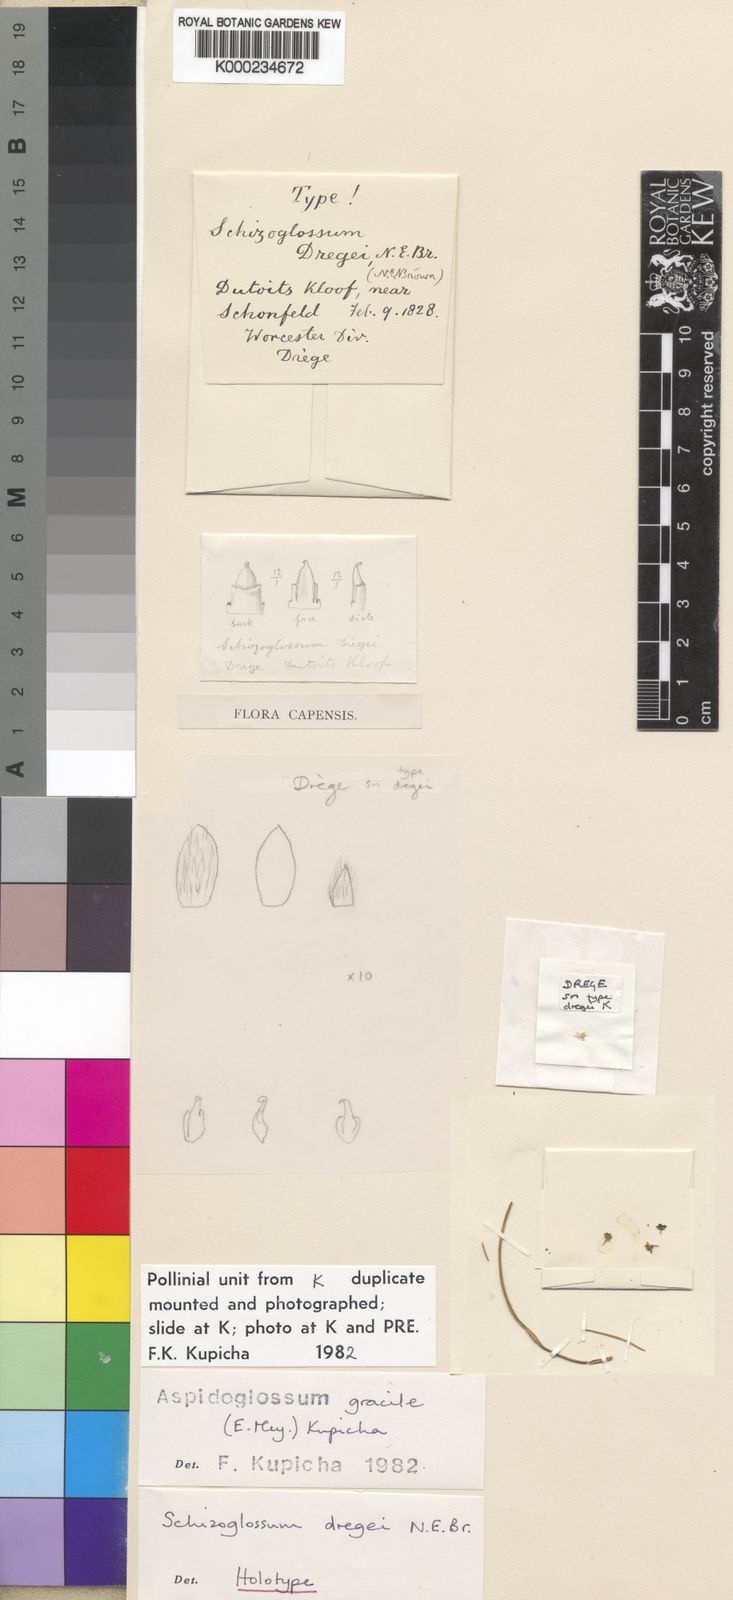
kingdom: Plantae
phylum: Tracheophyta
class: Magnoliopsida
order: Gentianales
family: Apocynaceae
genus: Aspidoglossum
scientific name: Aspidoglossum gracile
